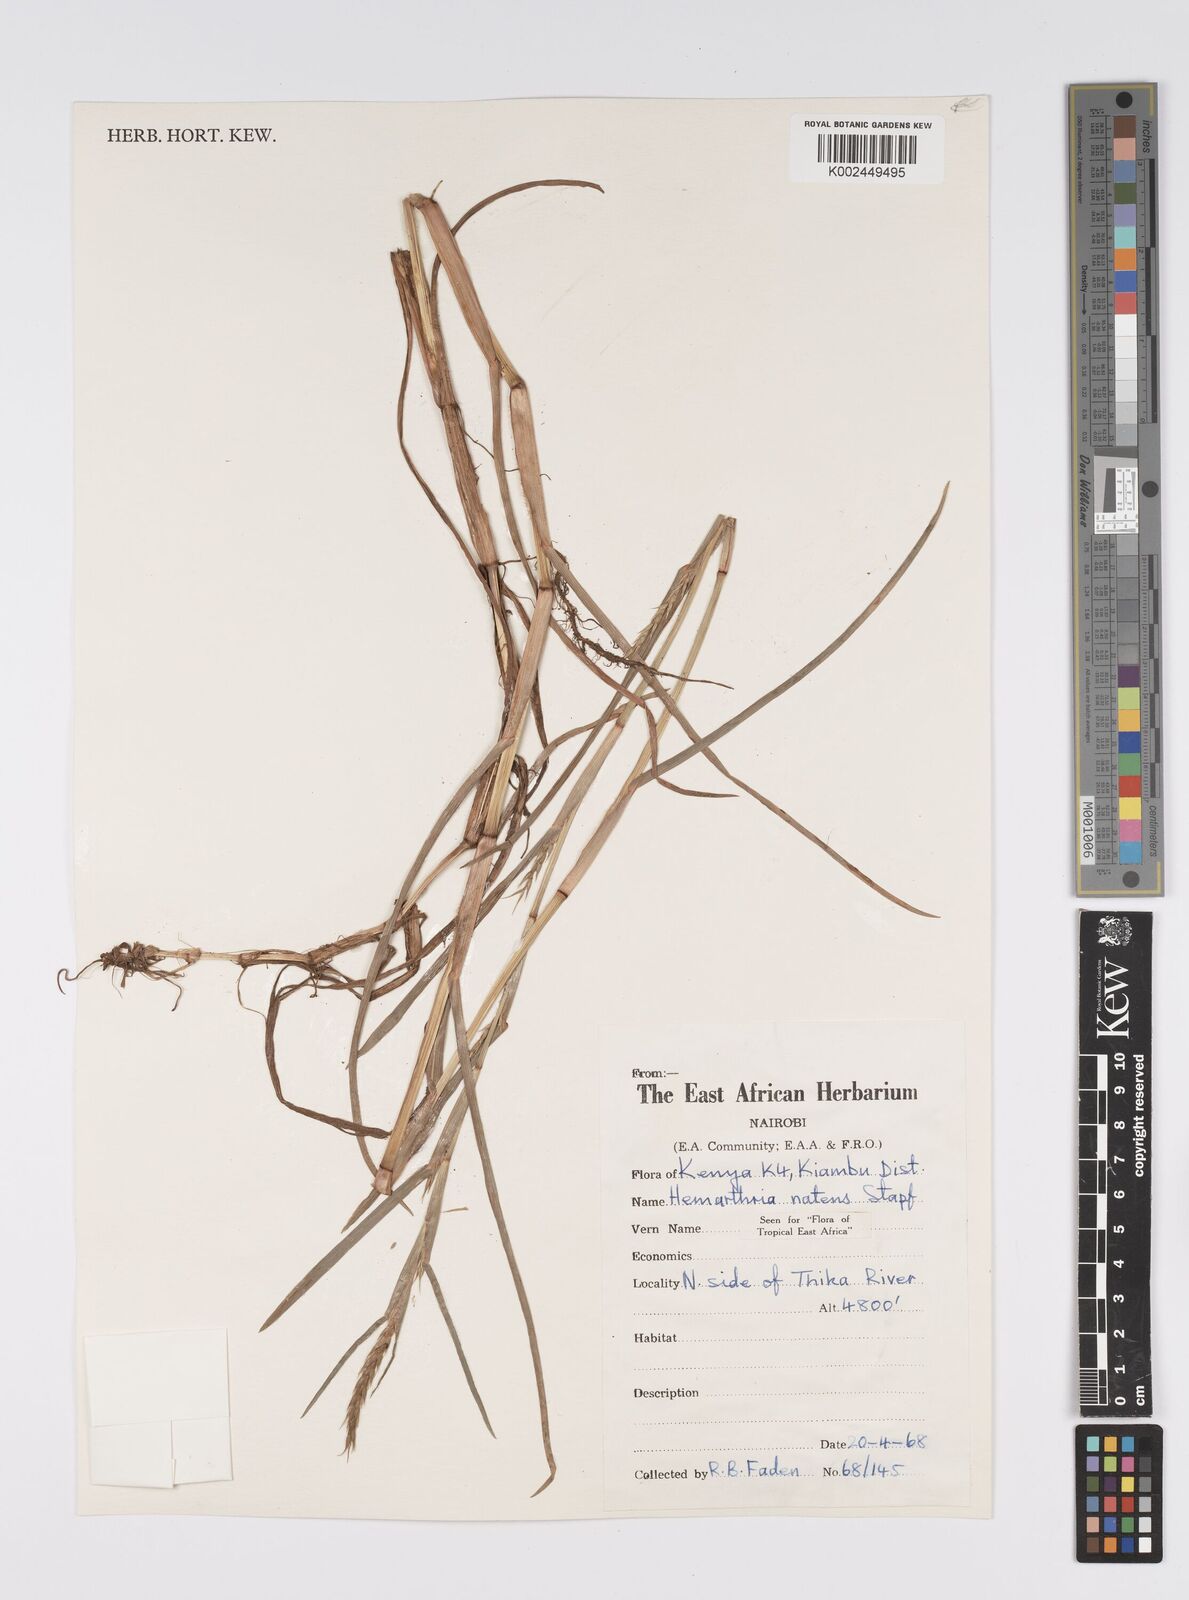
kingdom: Plantae
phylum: Tracheophyta
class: Liliopsida
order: Poales
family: Poaceae
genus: Hemarthria
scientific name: Hemarthria natans
